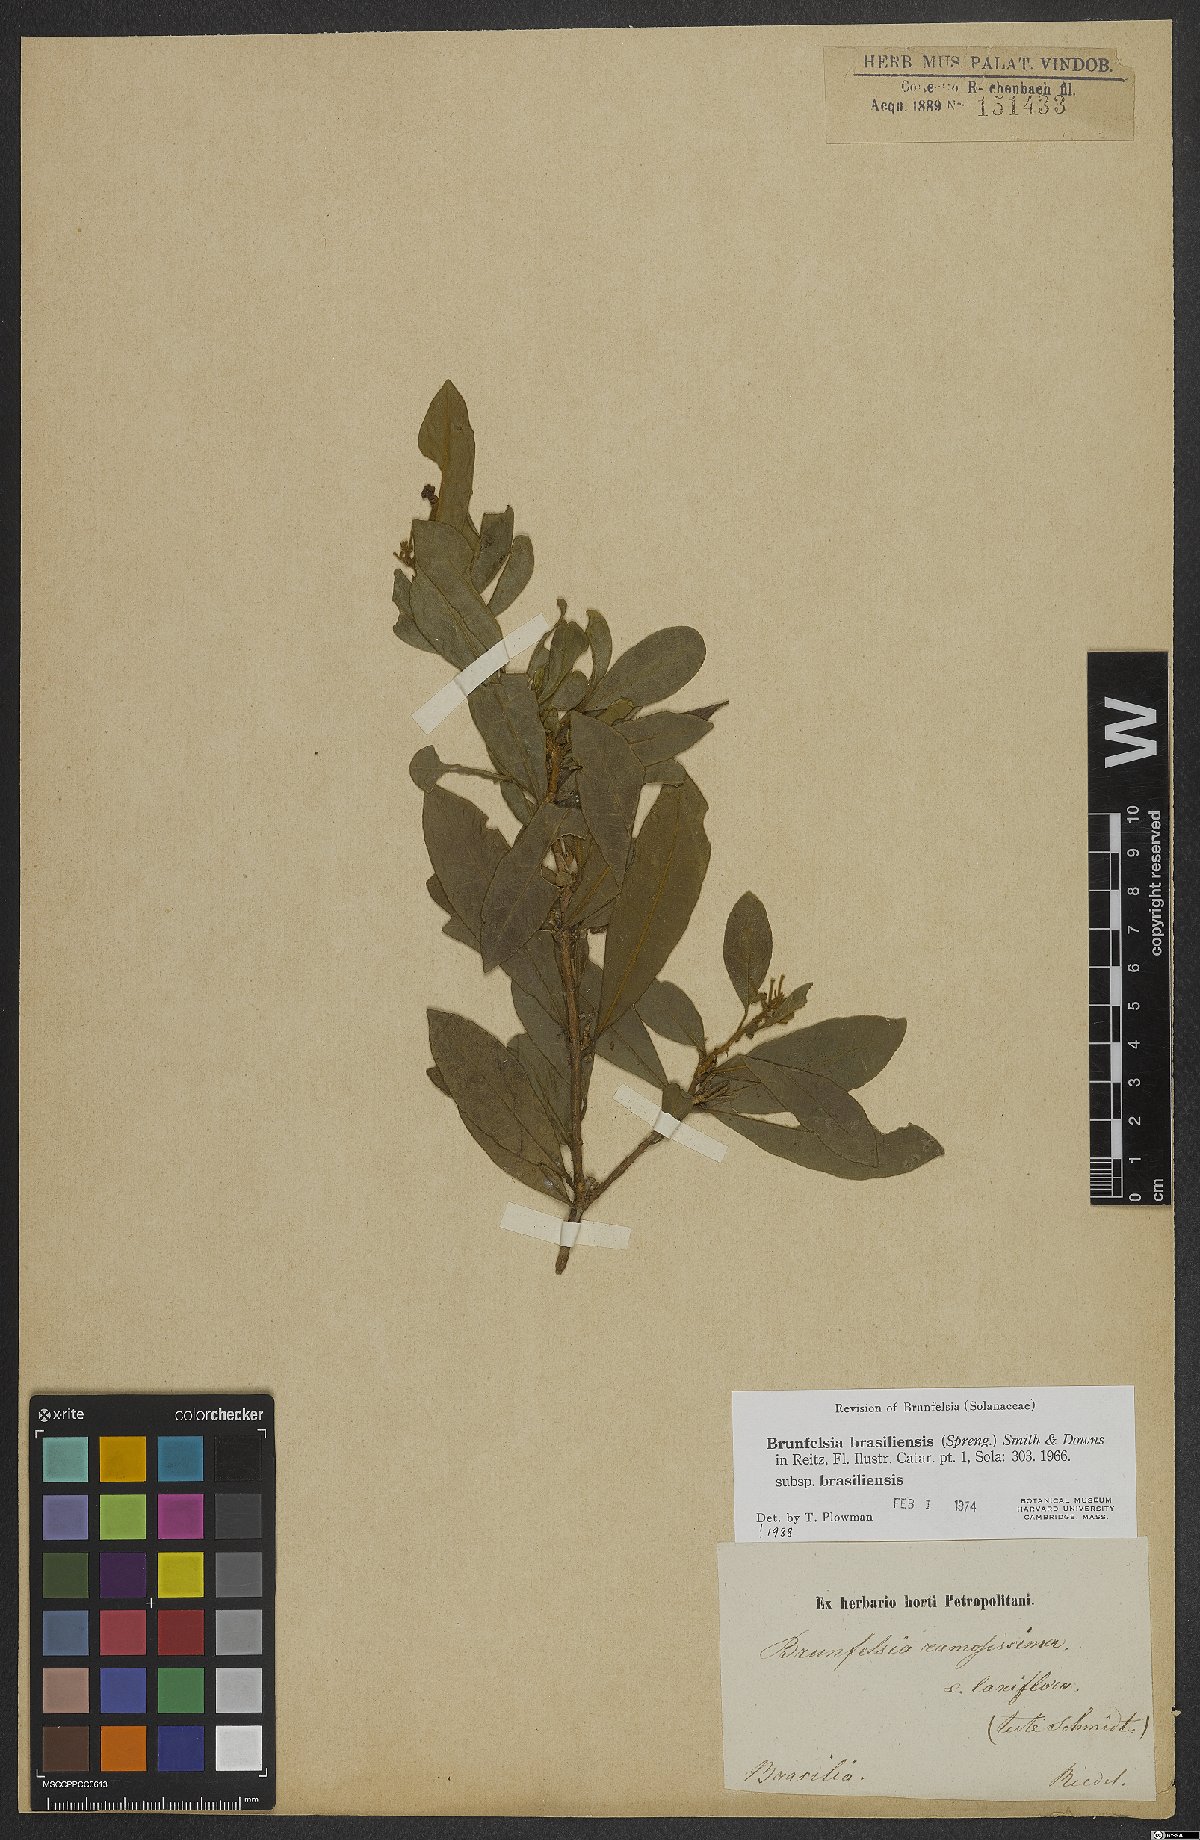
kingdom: Plantae
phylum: Tracheophyta
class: Magnoliopsida
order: Solanales
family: Solanaceae
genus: Brunfelsia
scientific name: Brunfelsia brasiliensis
